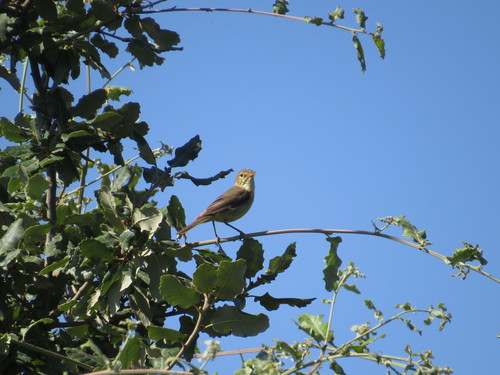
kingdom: Animalia
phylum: Chordata
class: Aves
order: Passeriformes
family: Acrocephalidae
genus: Hippolais
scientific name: Hippolais polyglotta
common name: Melodious warbler
